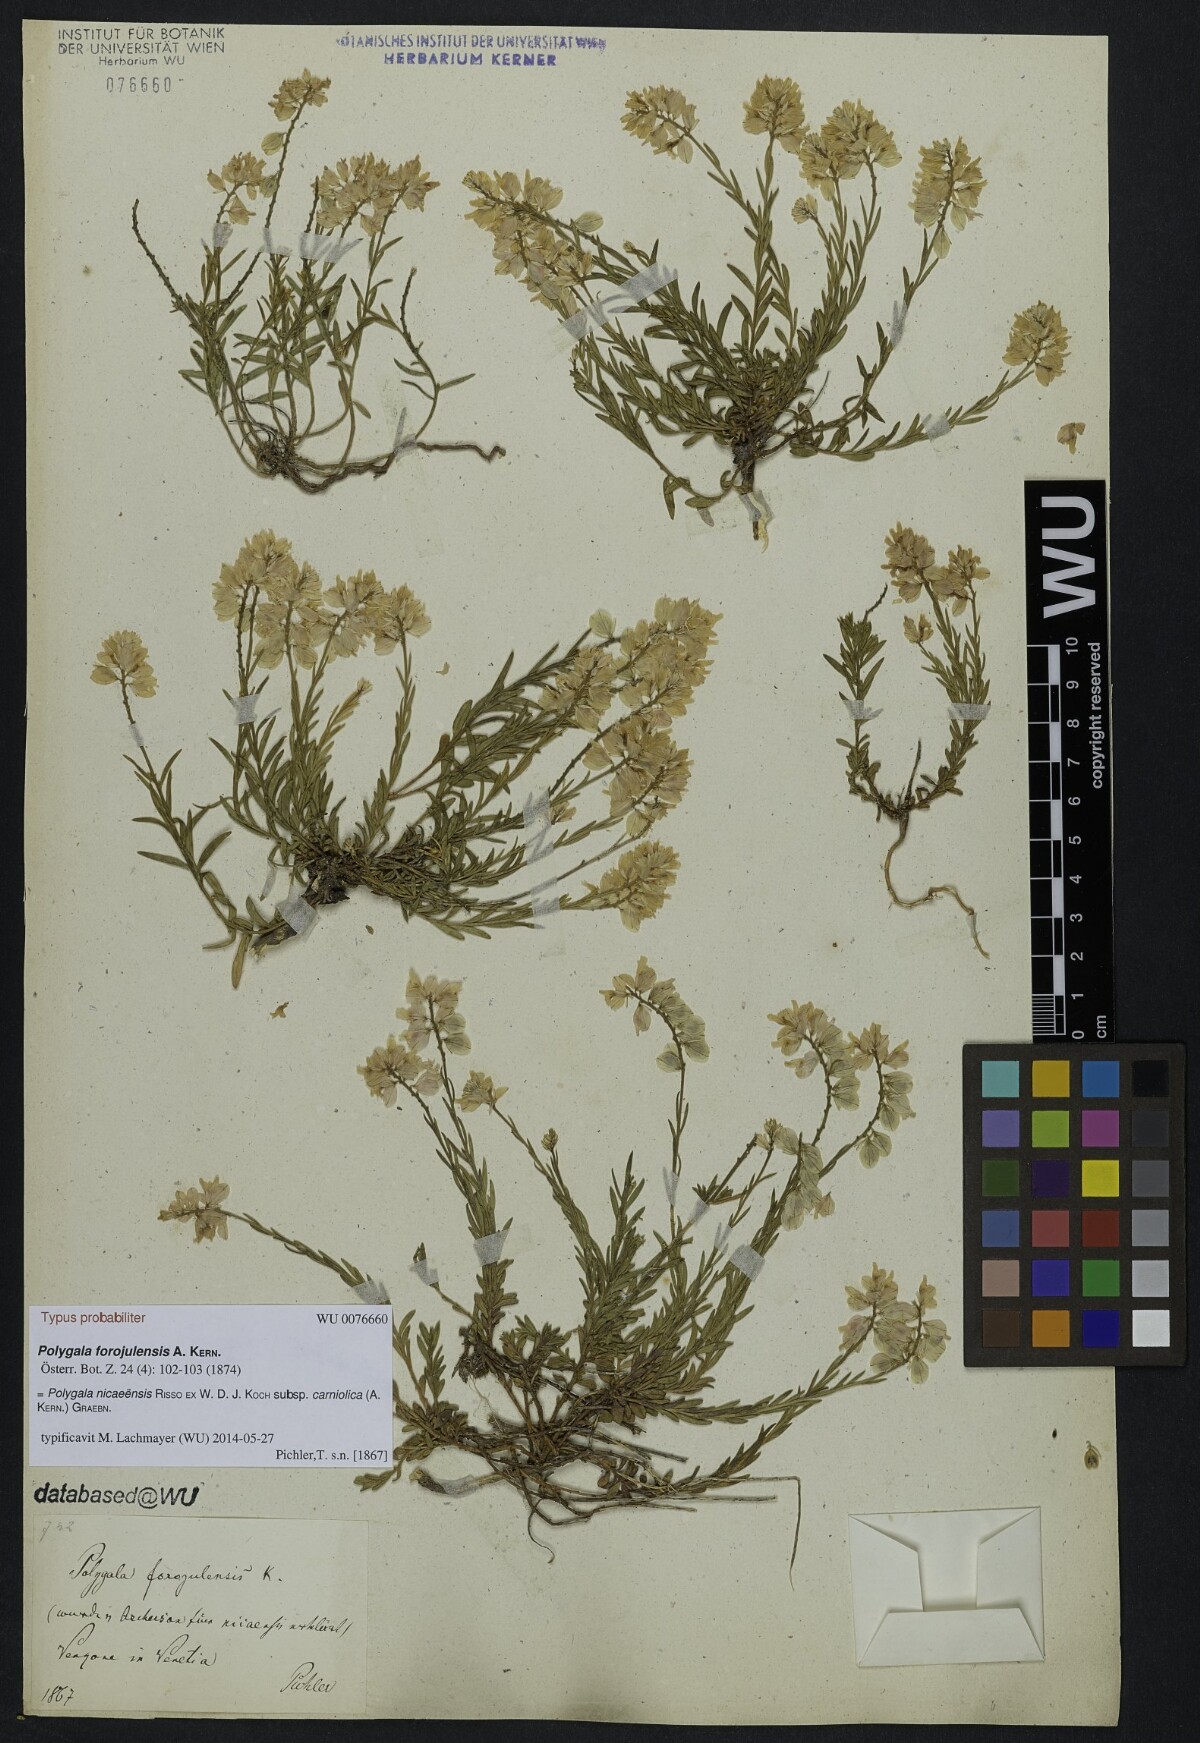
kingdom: Plantae
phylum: Tracheophyta
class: Magnoliopsida
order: Fabales
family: Polygalaceae
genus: Polygala
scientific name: Polygala forojulensis
